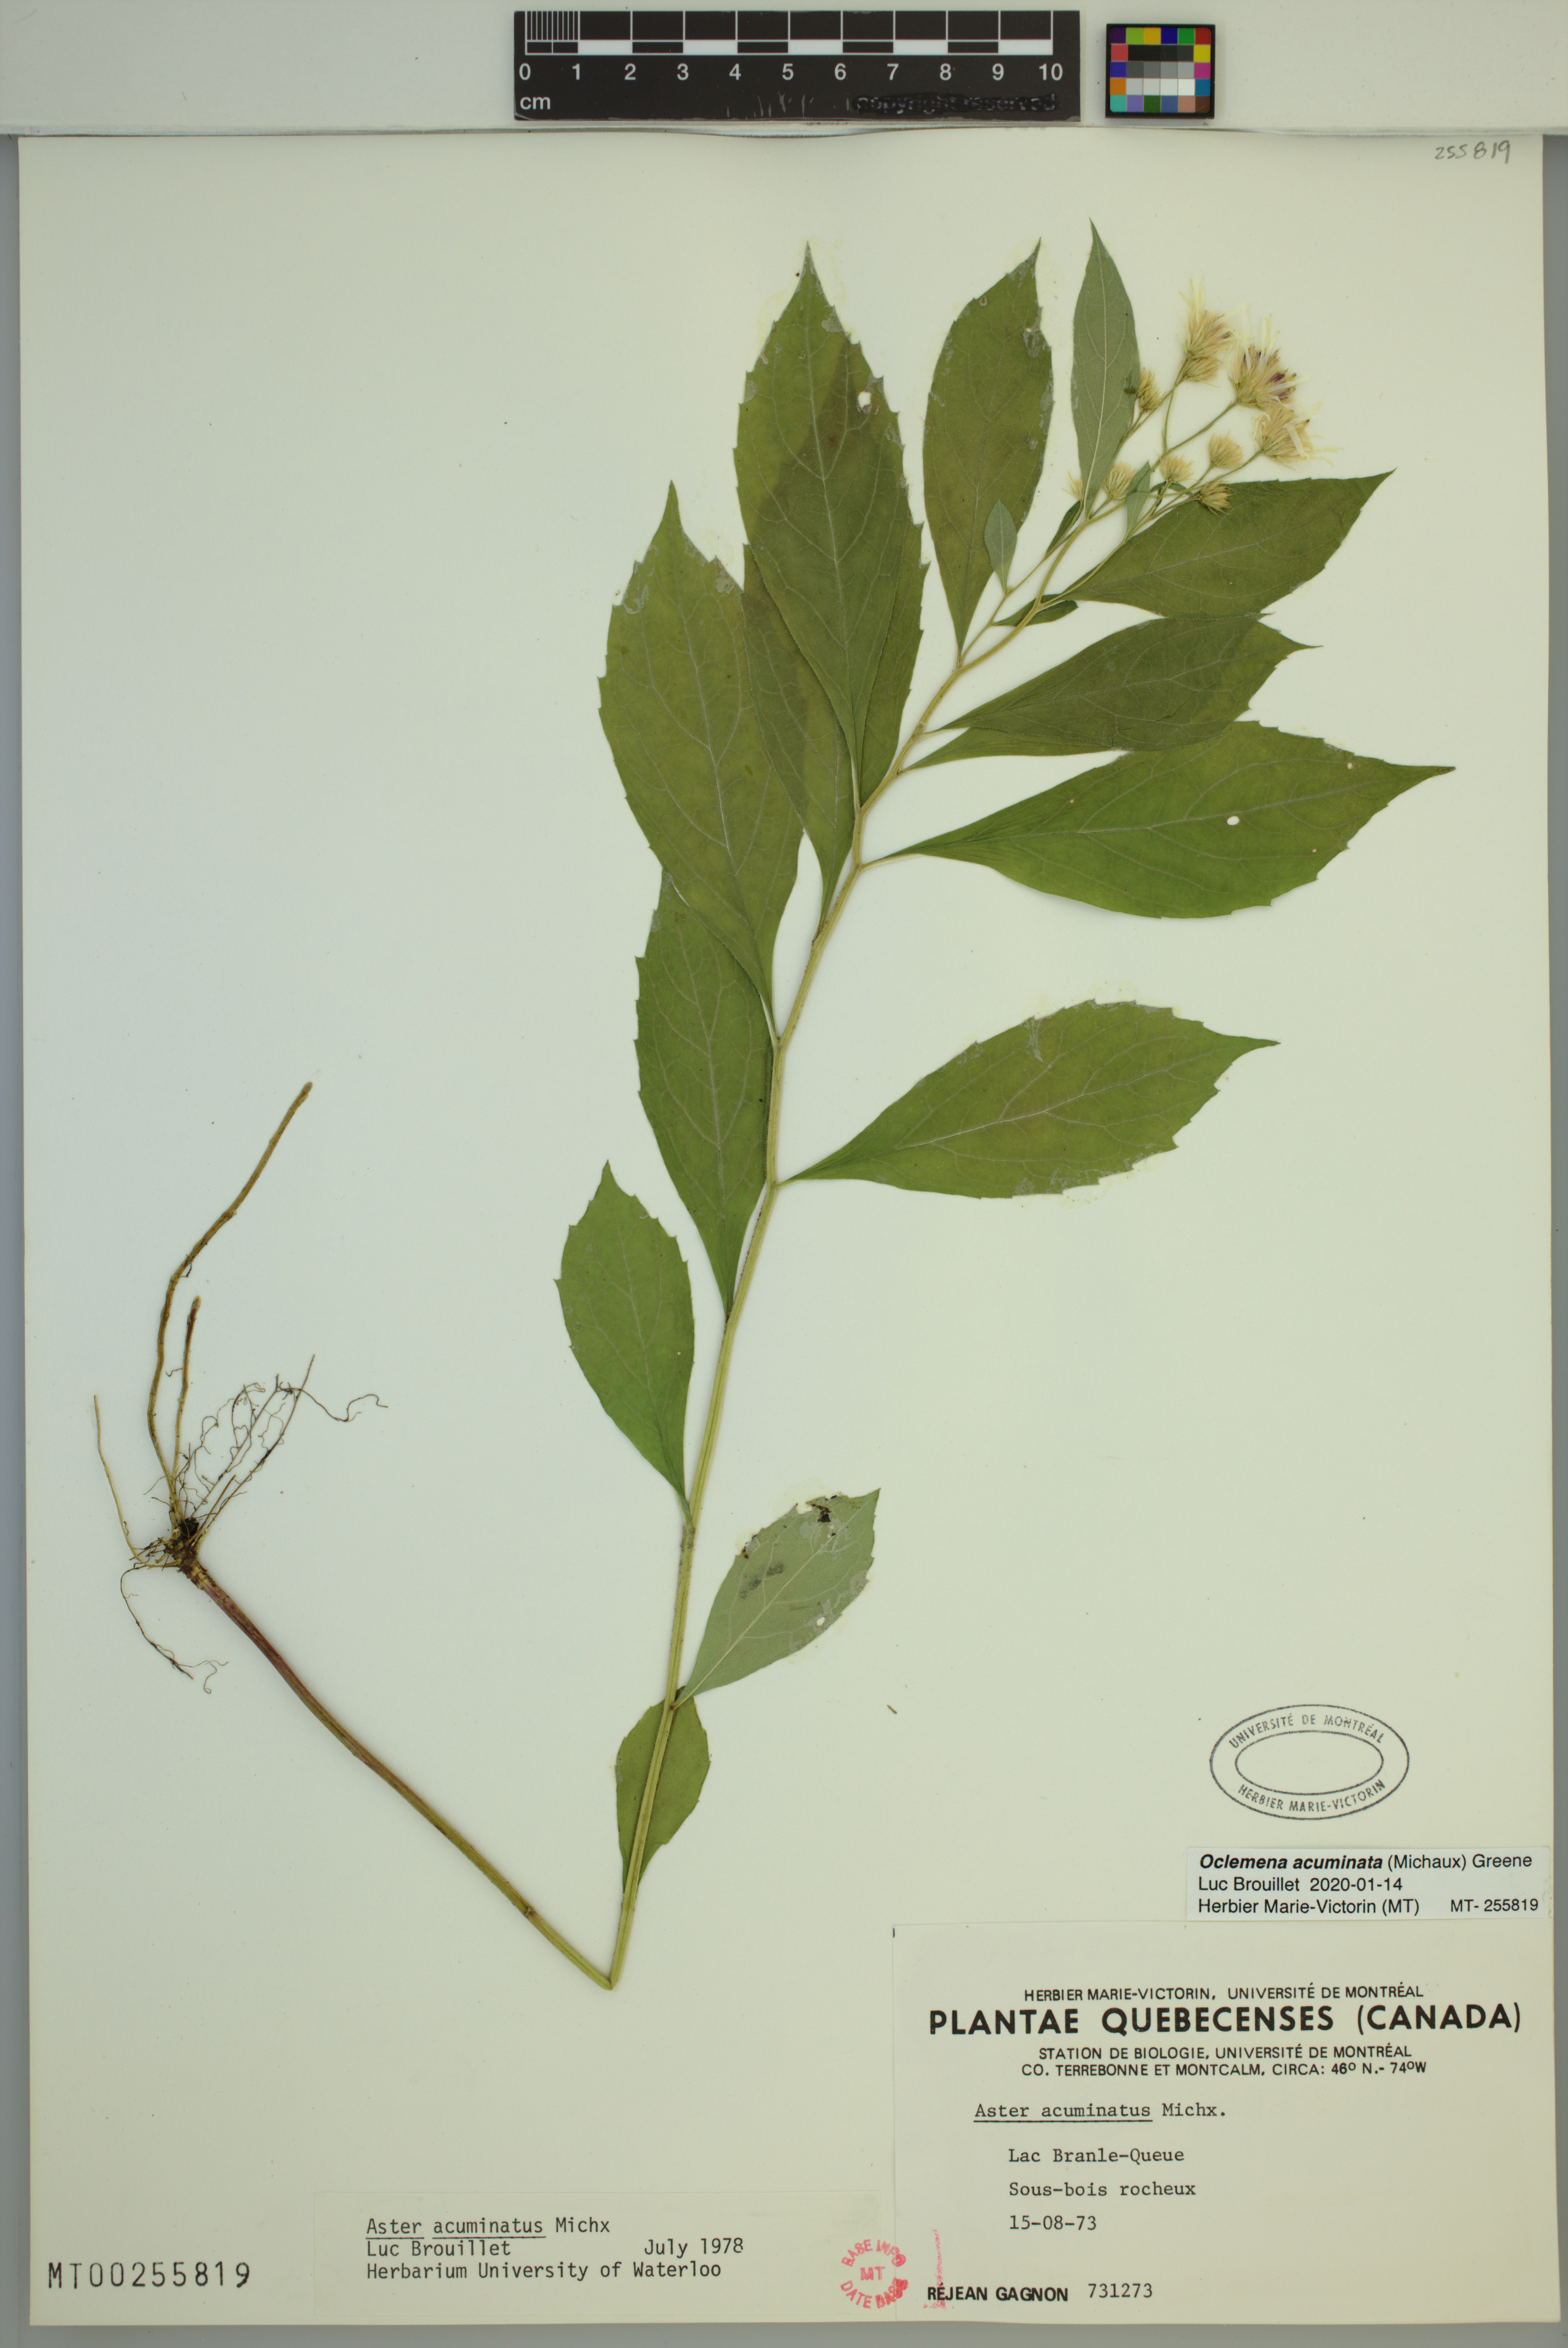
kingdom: Plantae
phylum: Tracheophyta
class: Magnoliopsida
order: Asterales
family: Asteraceae
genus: Oclemena
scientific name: Oclemena acuminata
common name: Mountain aster
